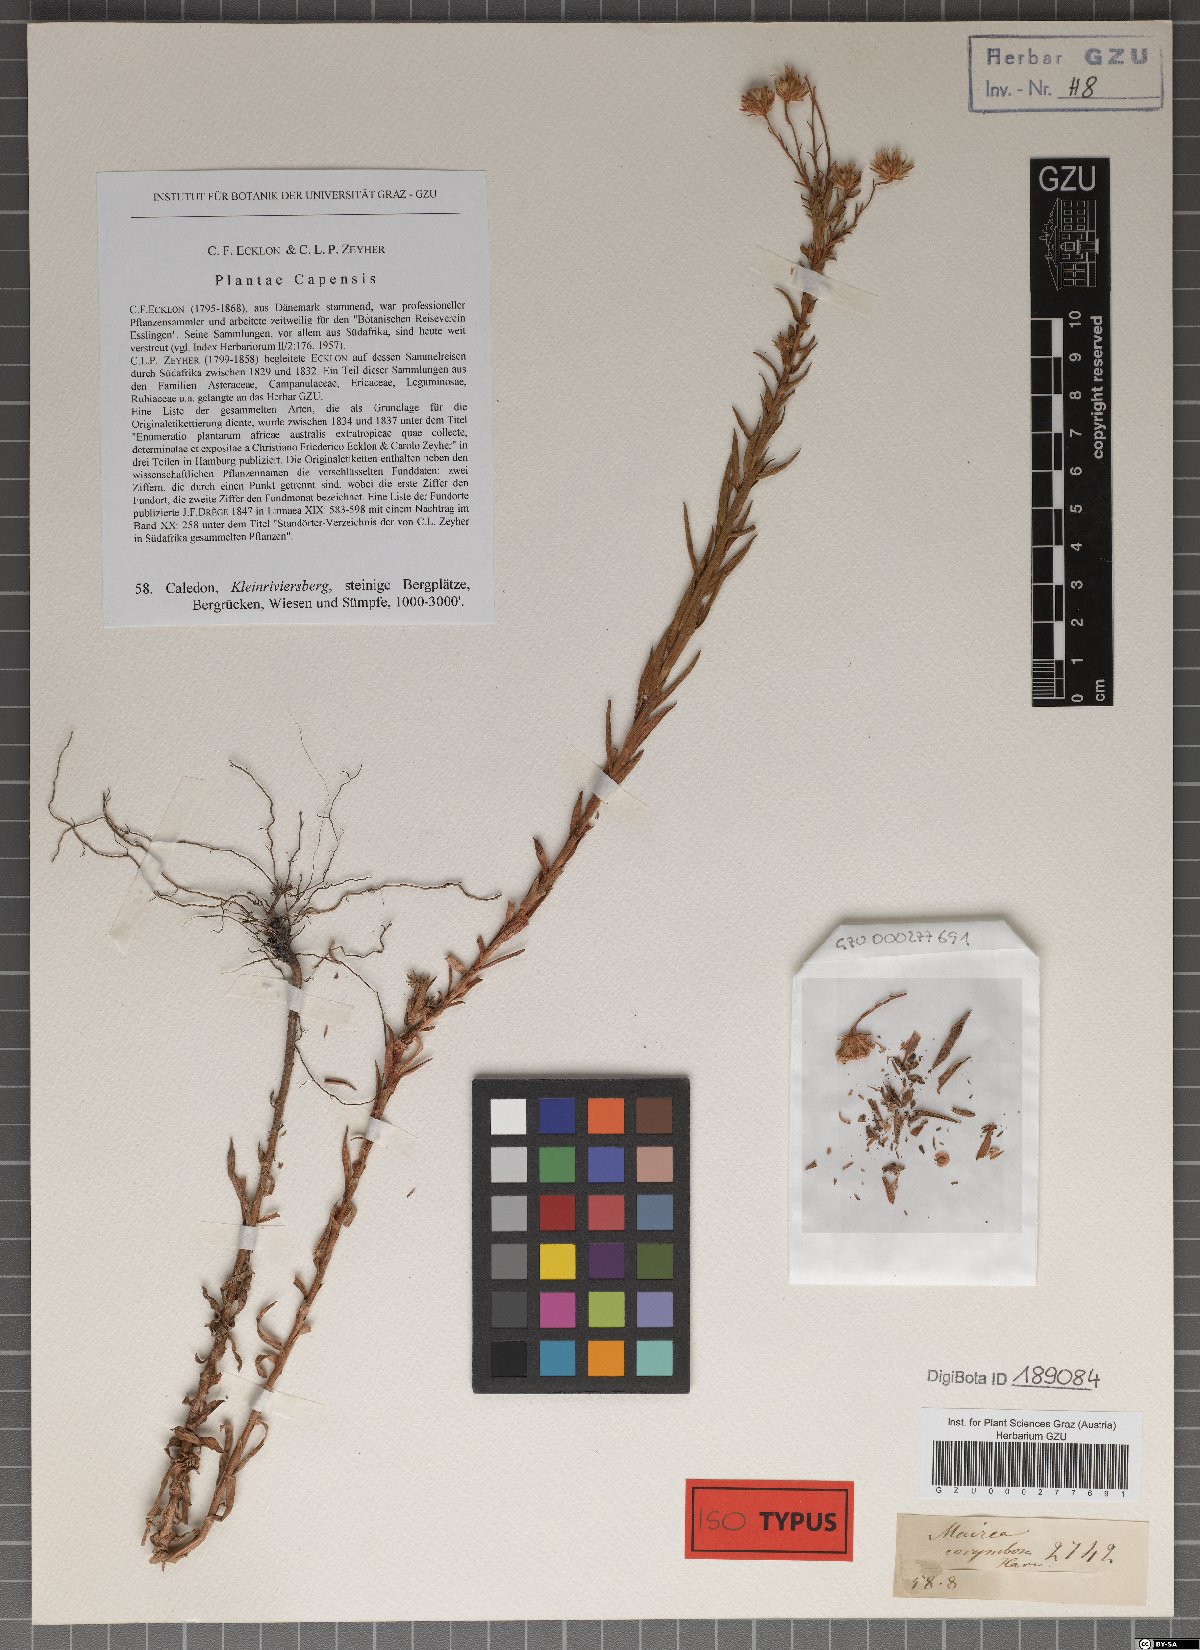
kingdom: Plantae
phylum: Tracheophyta
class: Magnoliopsida
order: Asterales
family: Asteraceae
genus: Zyrphelis
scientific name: Zyrphelis corymbosa
